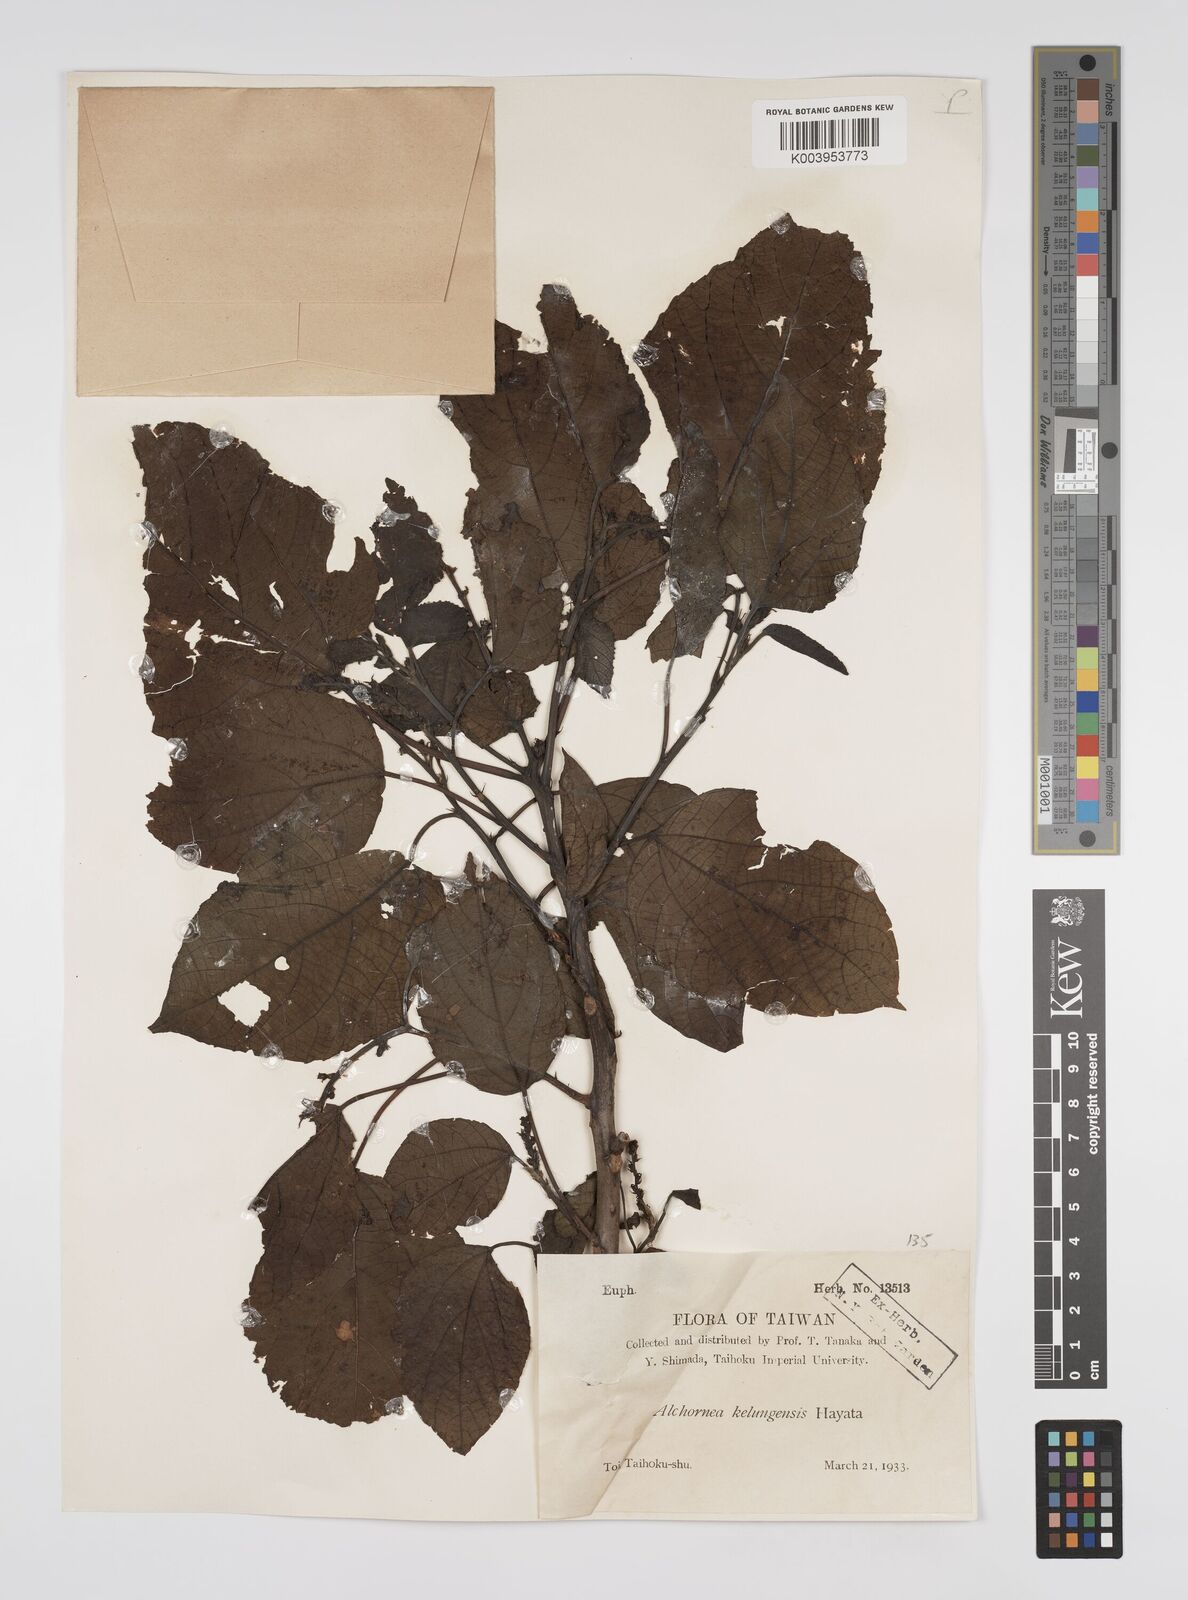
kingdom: Plantae
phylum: Tracheophyta
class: Magnoliopsida
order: Malpighiales
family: Euphorbiaceae
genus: Alchornea
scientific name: Alchornea liukiuensis
